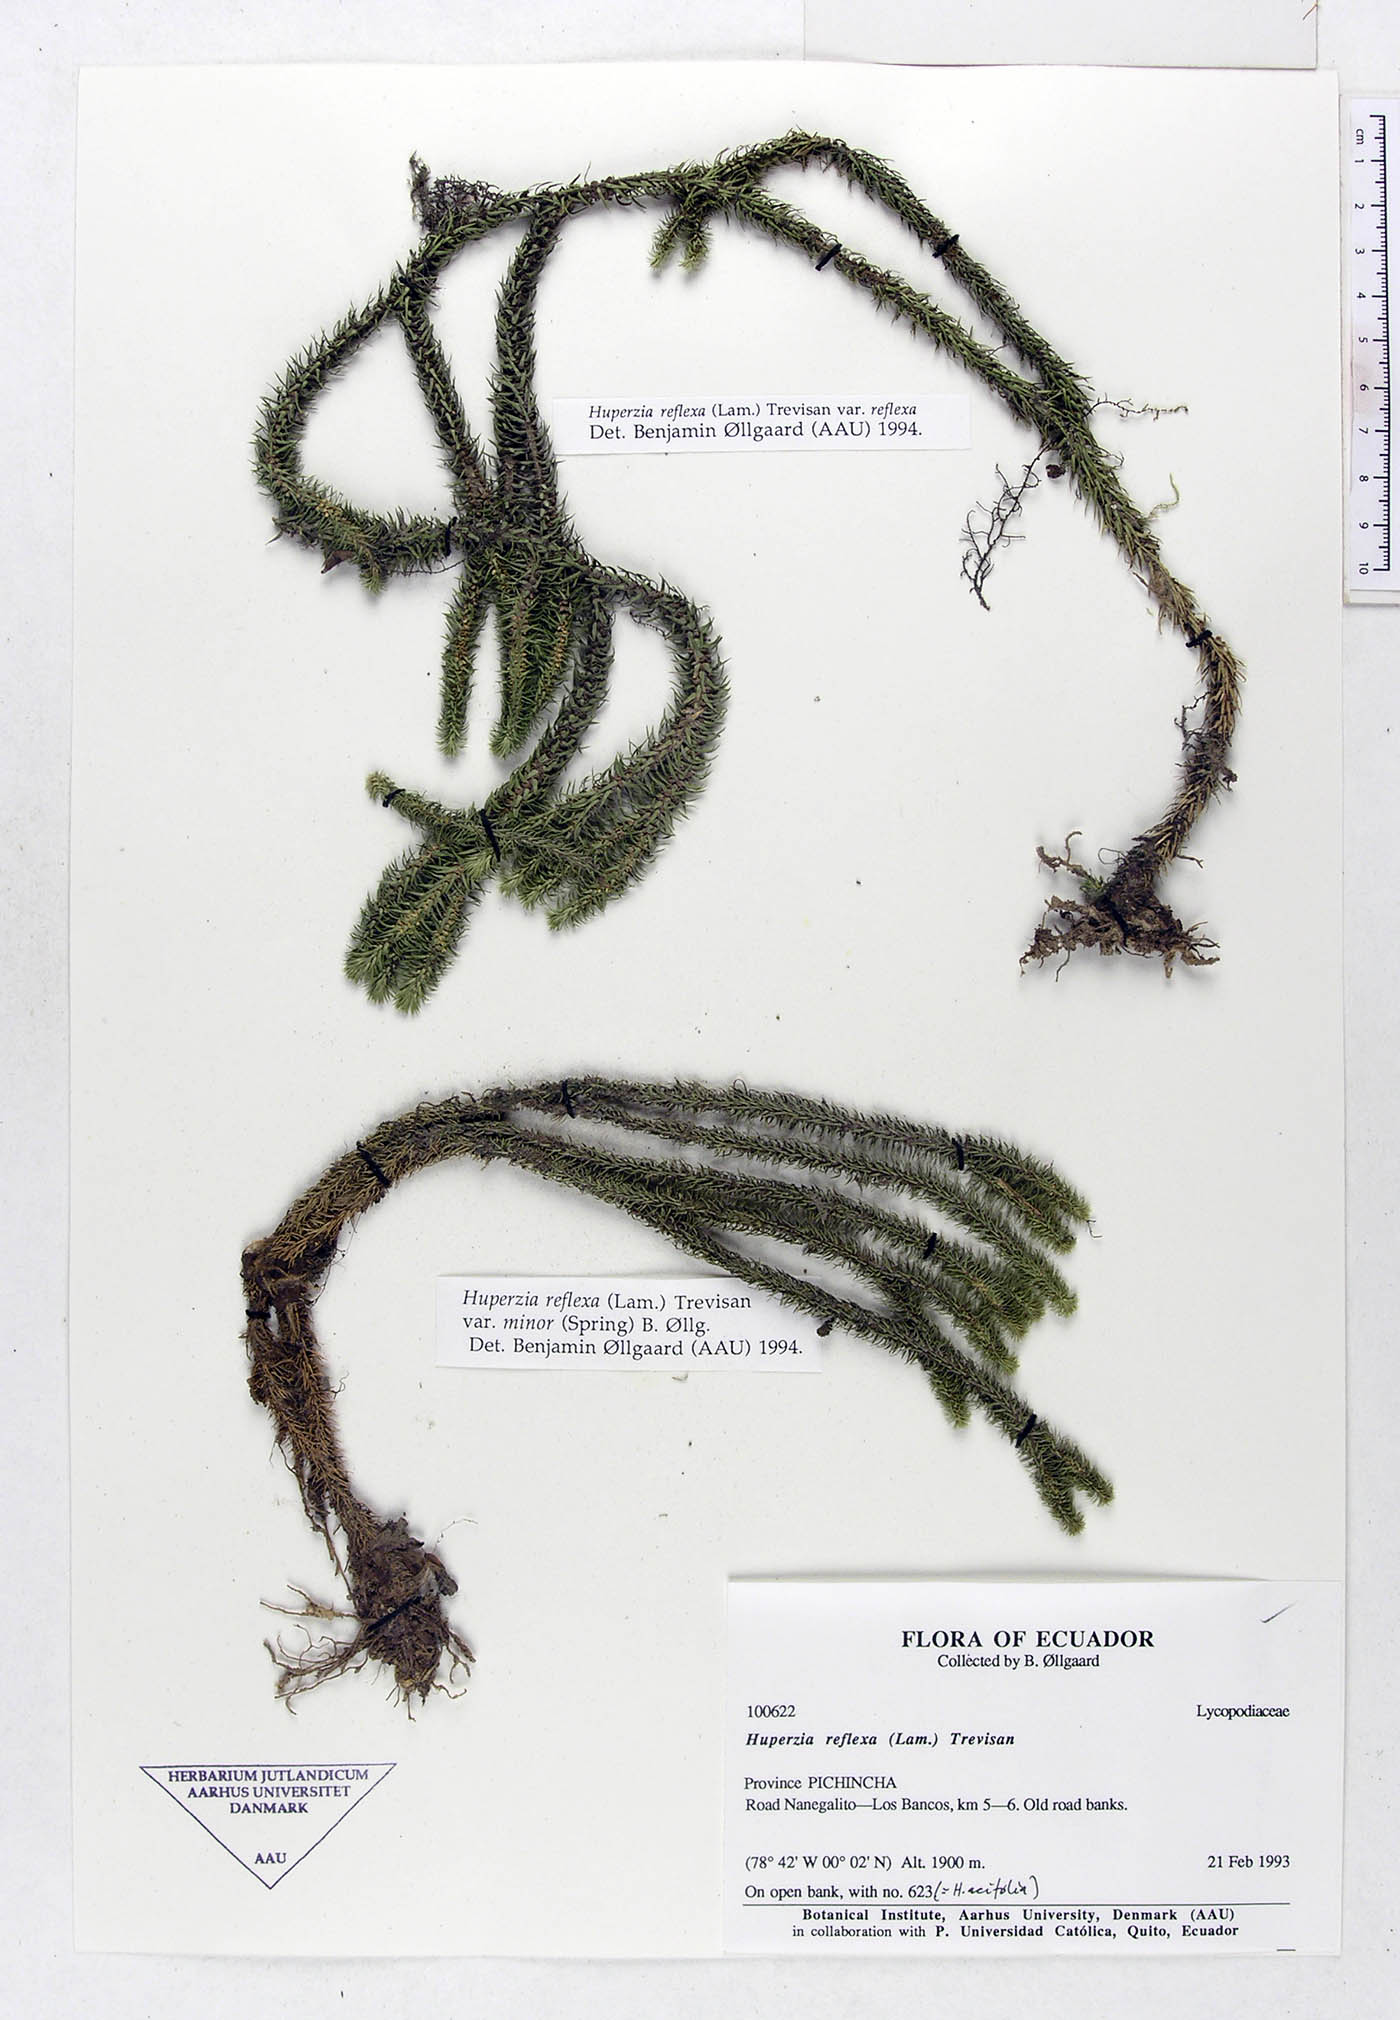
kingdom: Plantae
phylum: Tracheophyta
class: Lycopodiopsida
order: Lycopodiales
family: Lycopodiaceae
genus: Phlegmariurus
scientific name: Phlegmariurus reflexus
